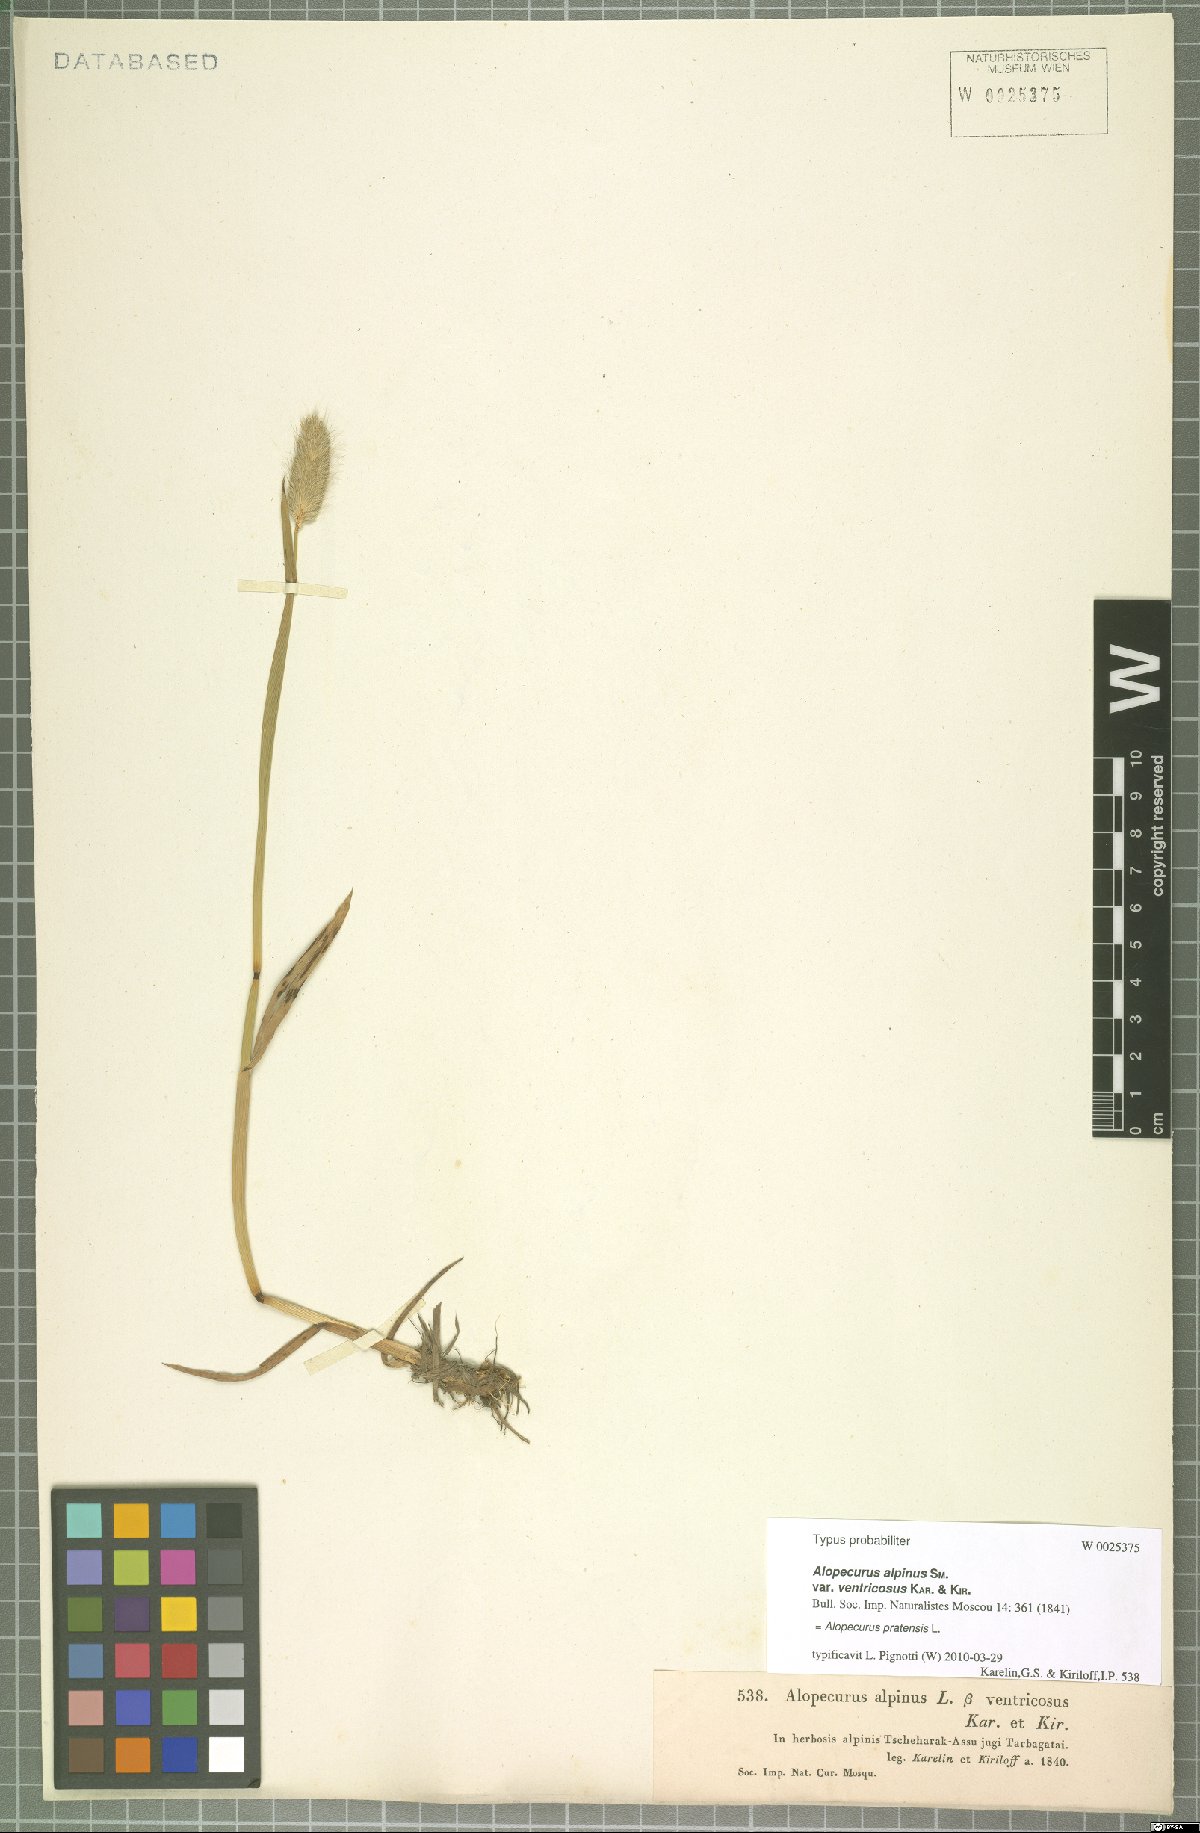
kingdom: Plantae
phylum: Tracheophyta
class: Liliopsida
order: Poales
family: Poaceae
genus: Alopecurus
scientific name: Alopecurus pratensis
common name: Meadow foxtail
